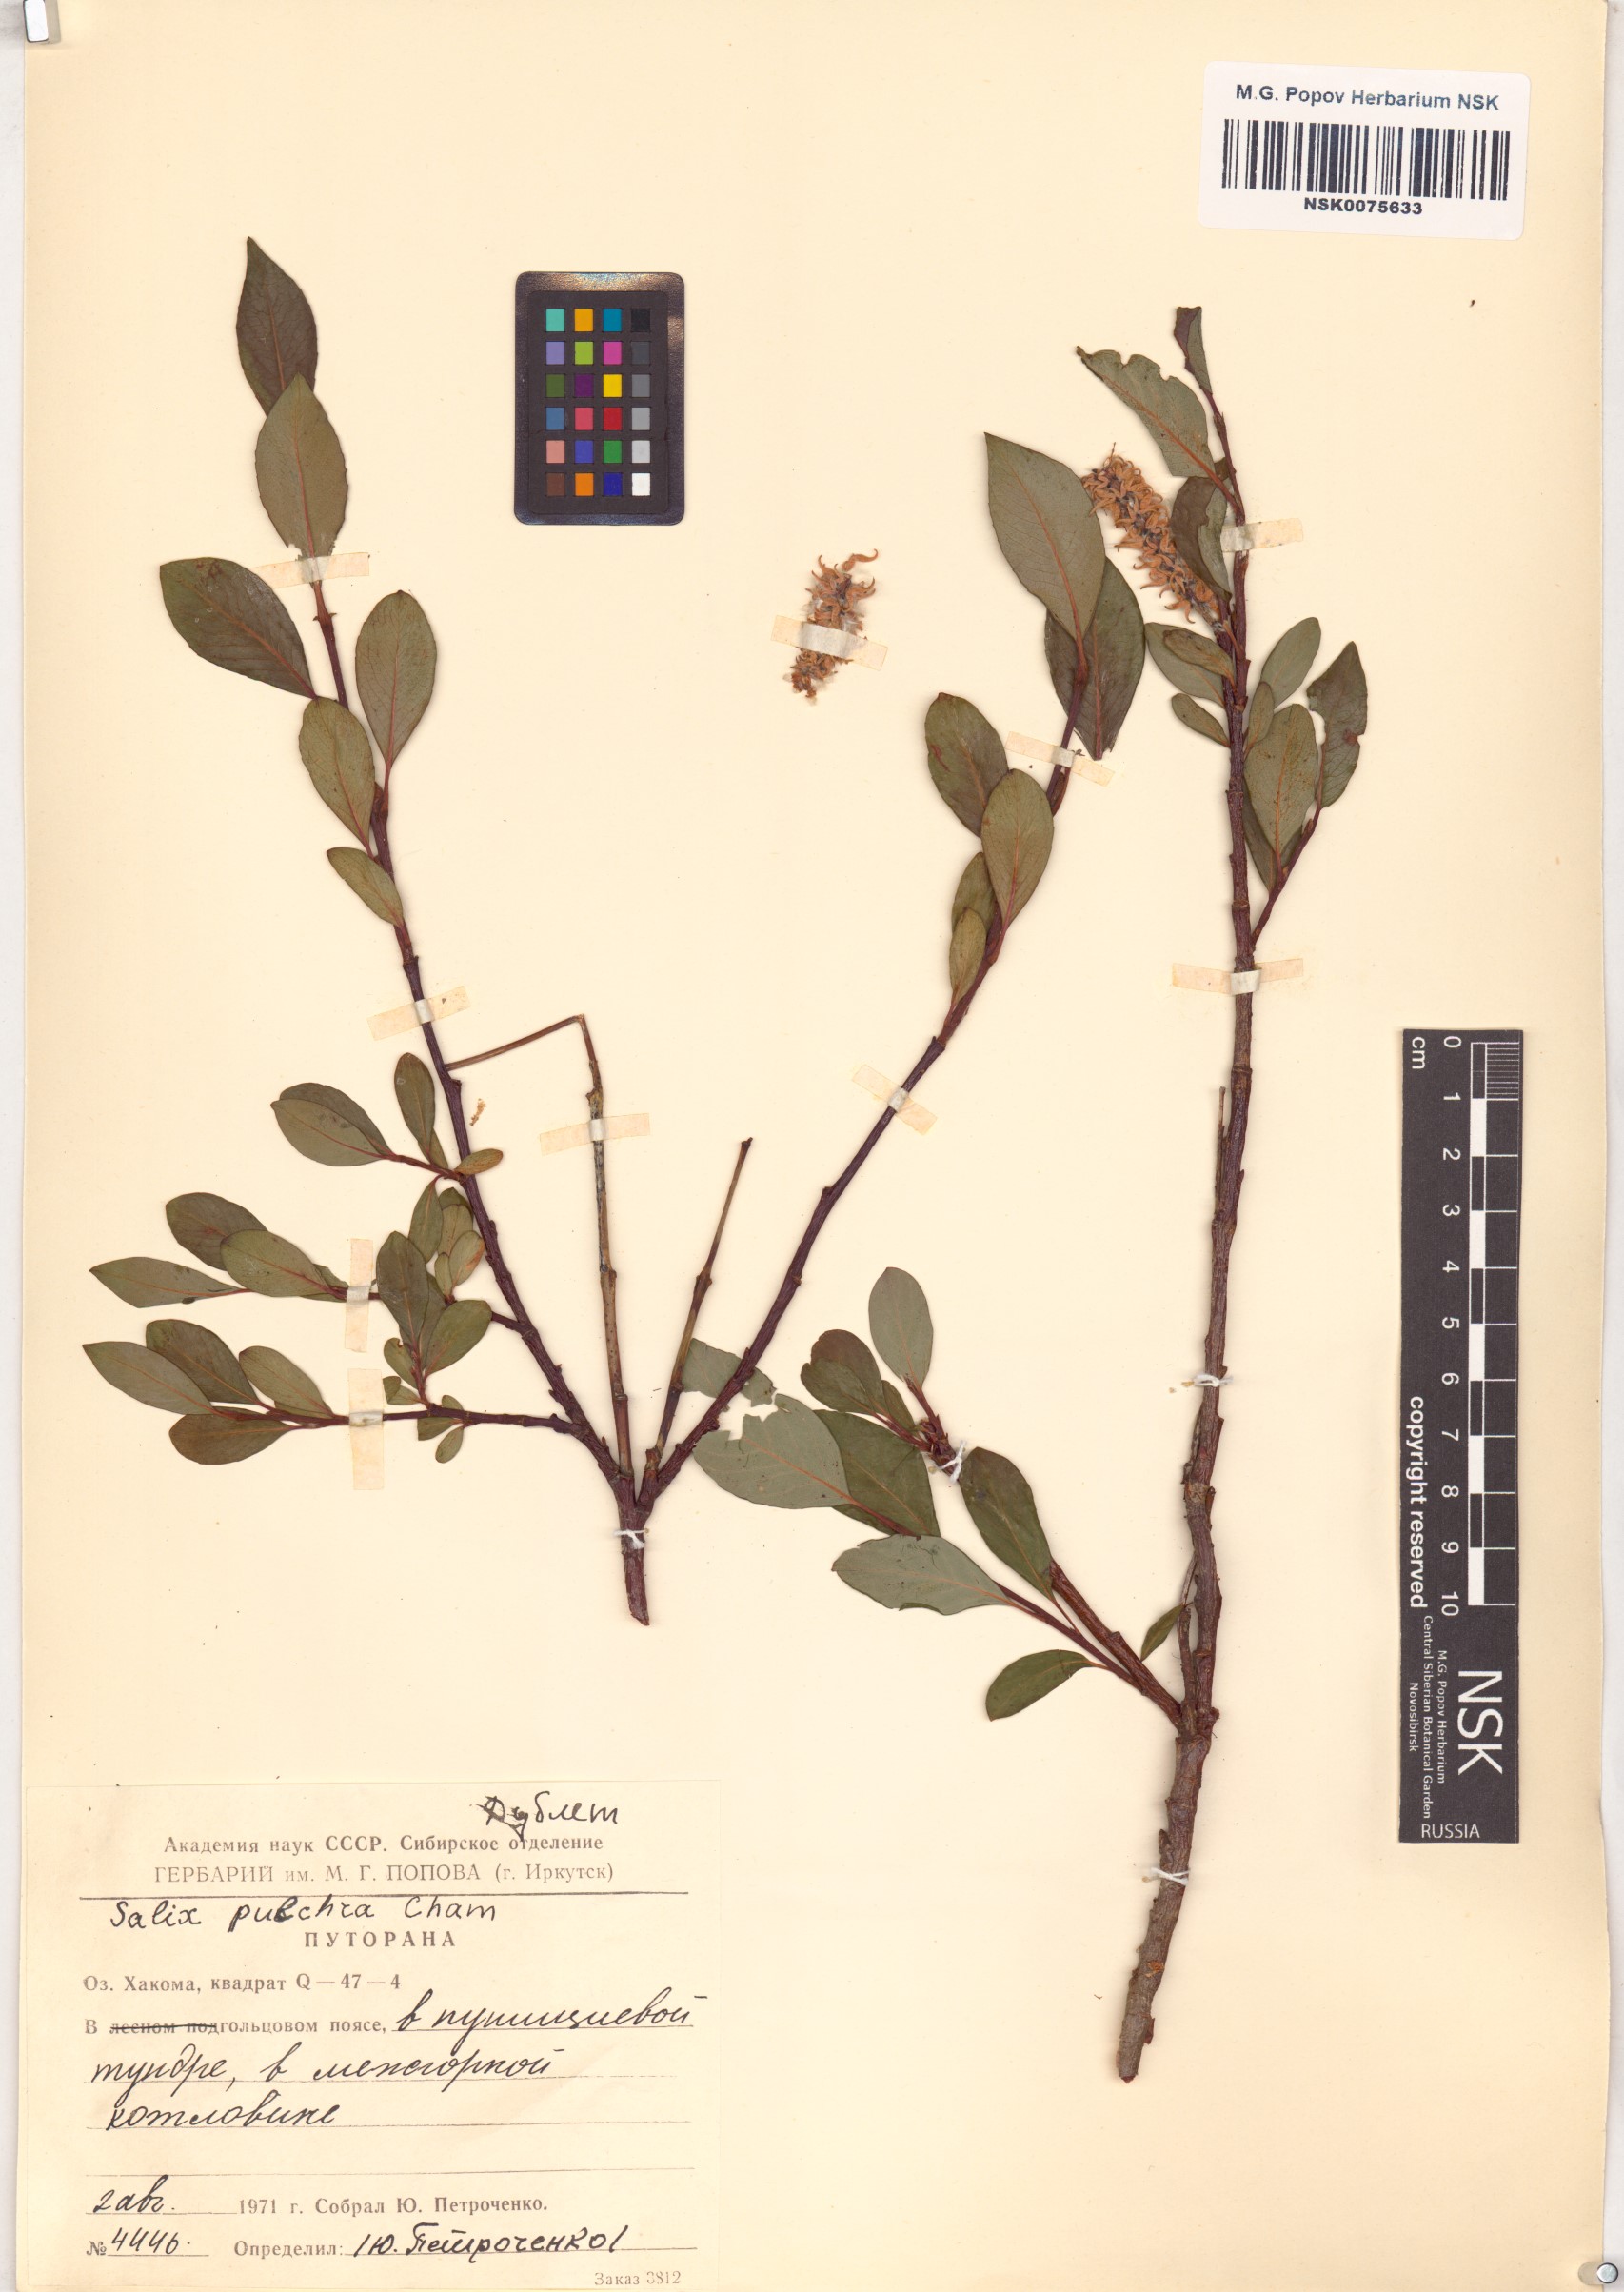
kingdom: Plantae
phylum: Tracheophyta
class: Magnoliopsida
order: Malpighiales
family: Salicaceae
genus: Salix
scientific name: Salix pulchra
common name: Diamond-leaved willow
